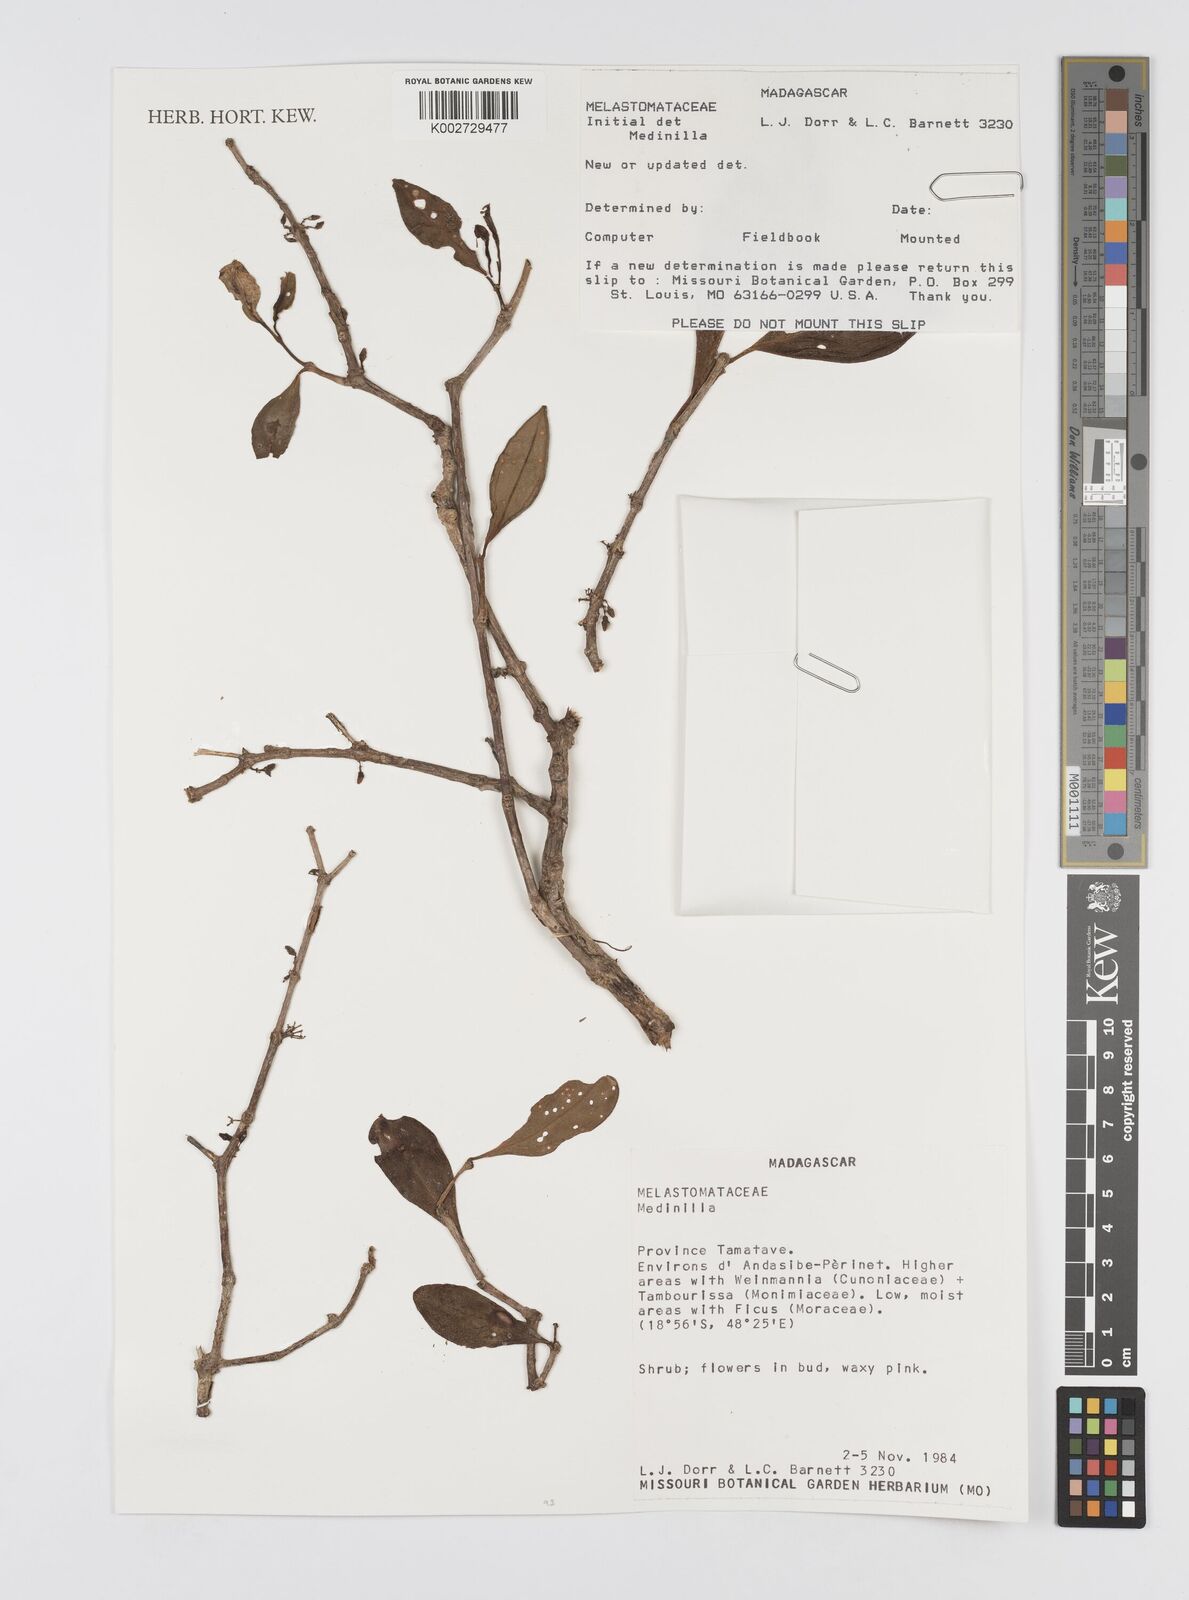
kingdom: Plantae
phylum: Tracheophyta
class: Magnoliopsida
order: Myrtales
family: Melastomataceae
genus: Medinilla
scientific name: Medinilla
